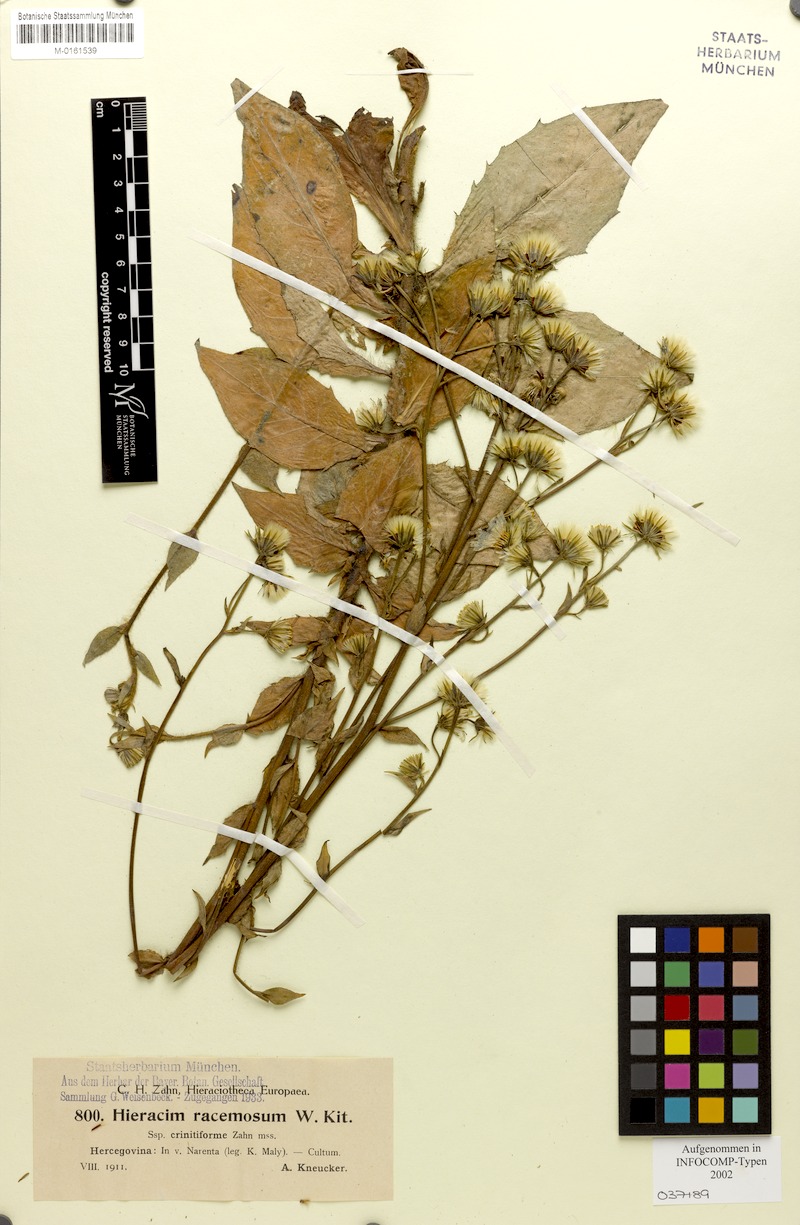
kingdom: Plantae
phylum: Tracheophyta
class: Magnoliopsida
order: Asterales
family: Asteraceae
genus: Hieracium
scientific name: Hieracium racemosum
